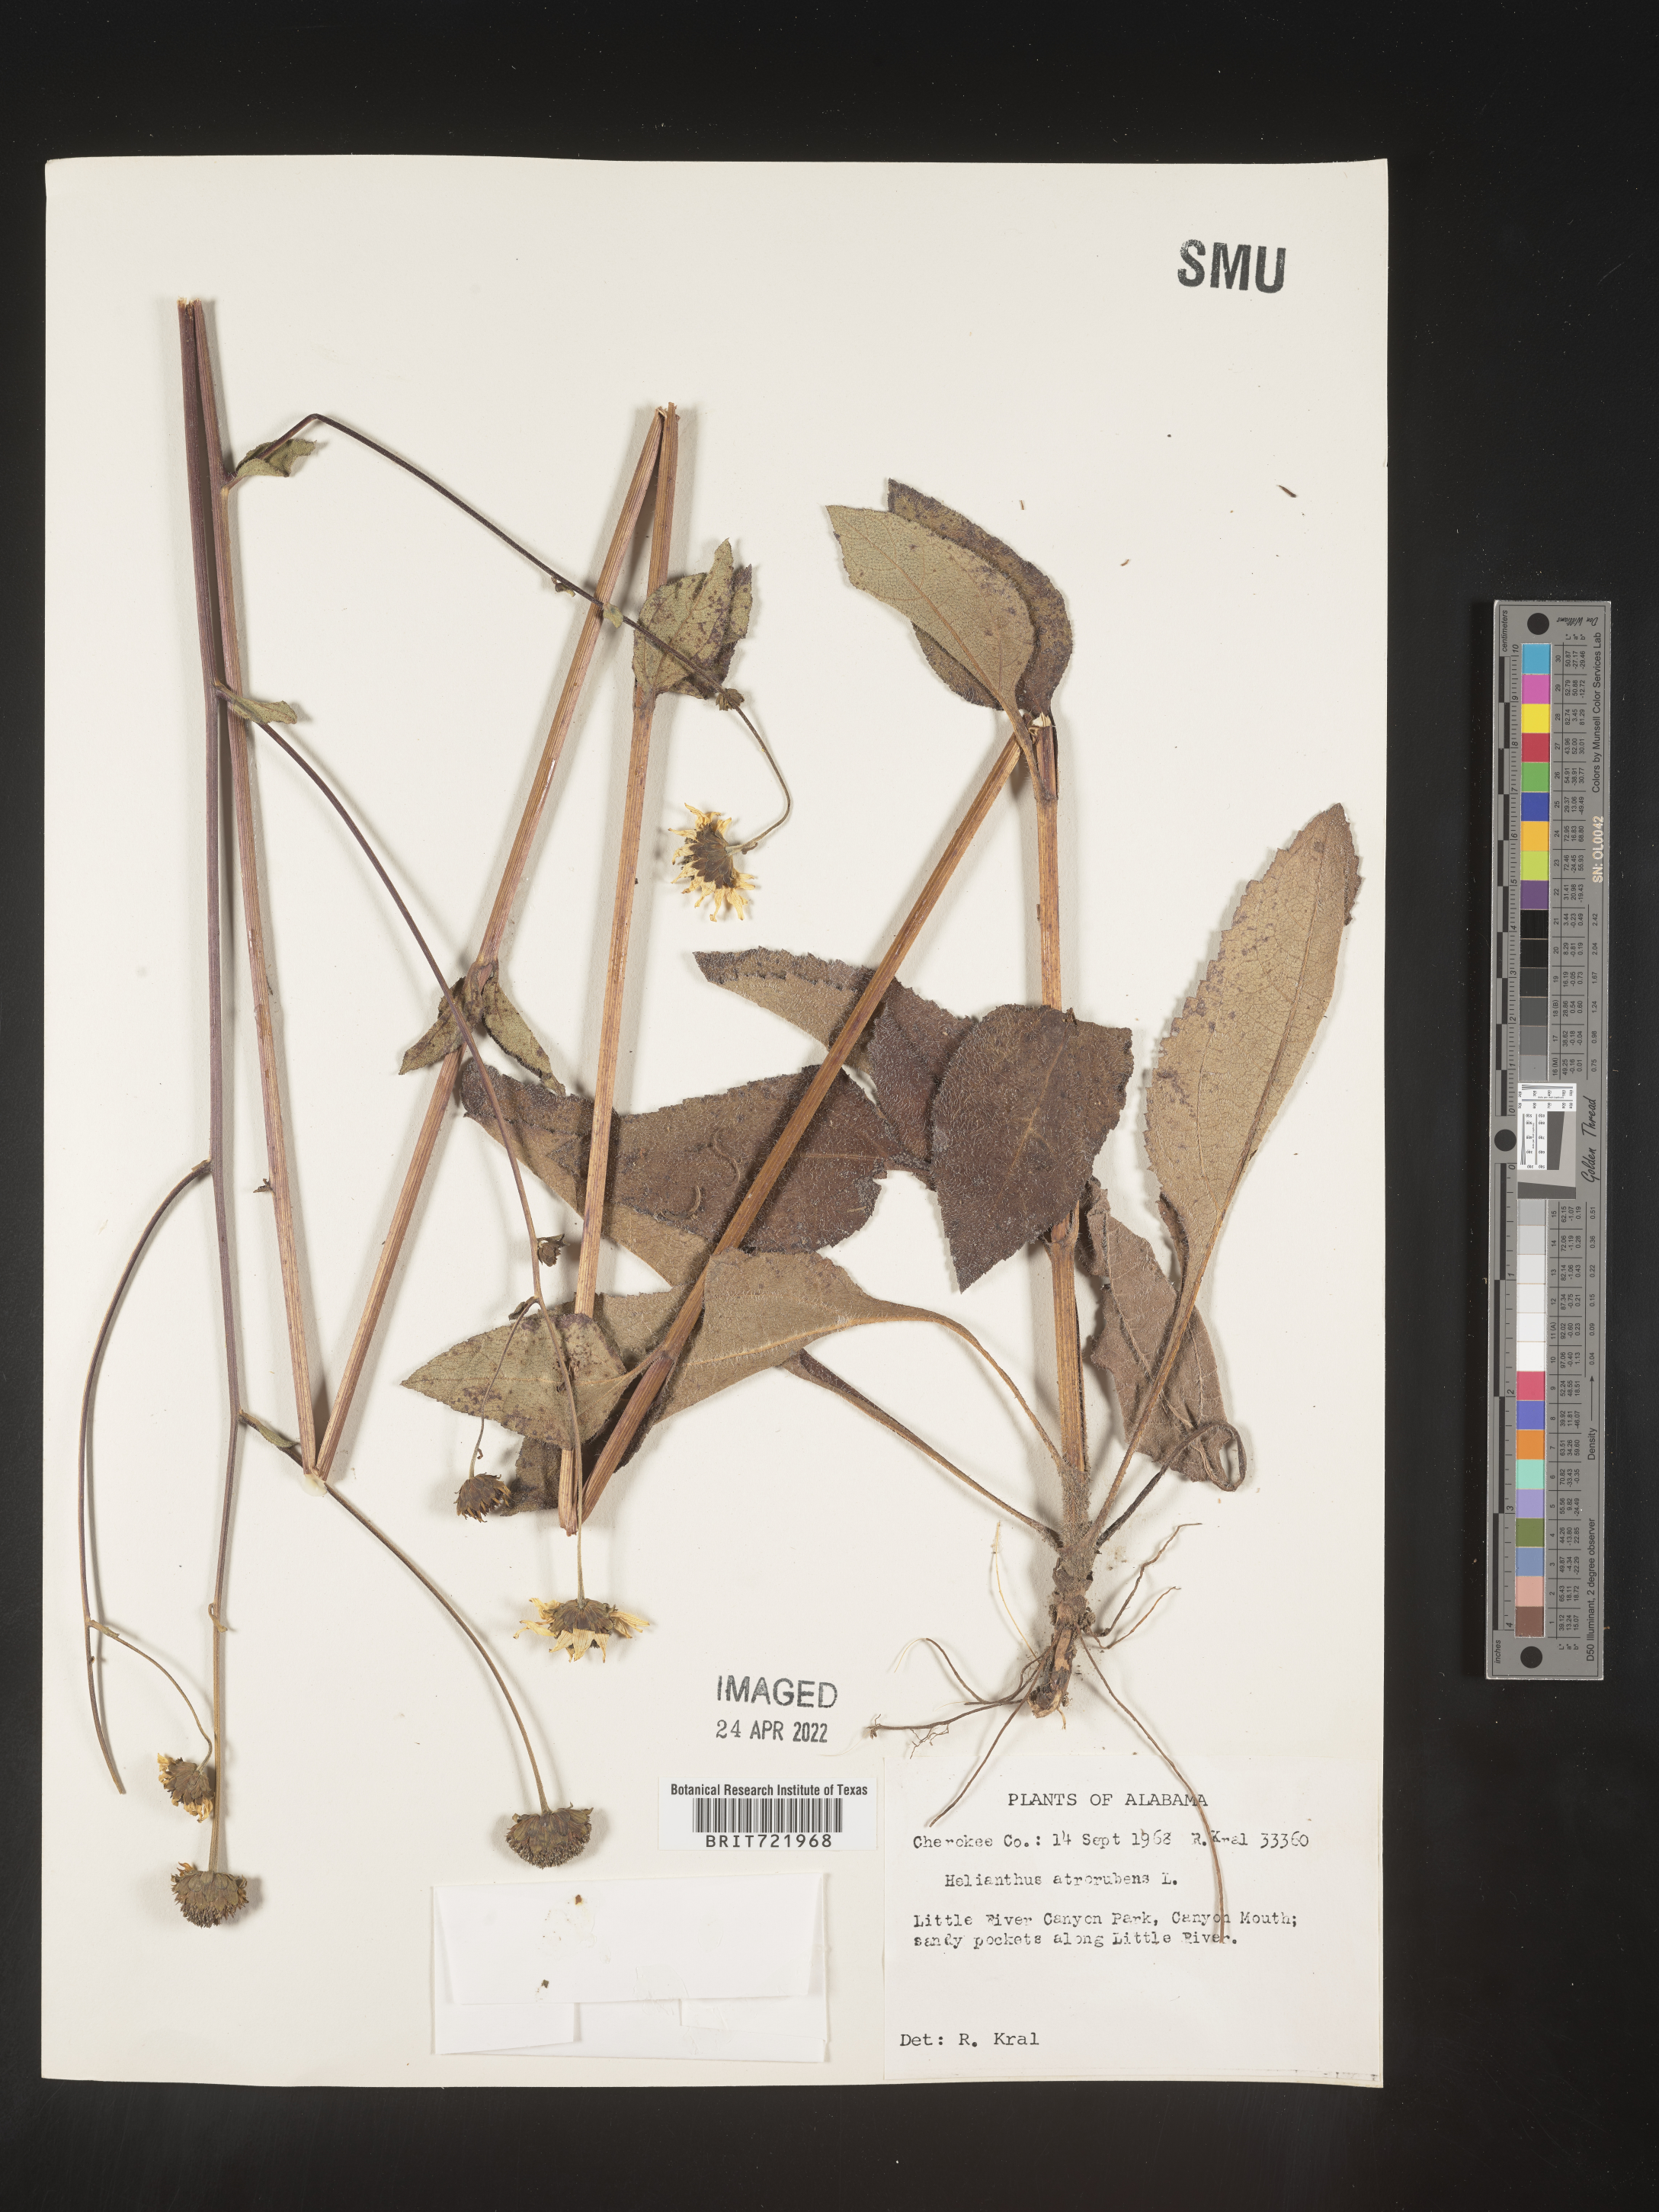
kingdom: Plantae
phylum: Tracheophyta
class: Magnoliopsida
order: Asterales
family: Asteraceae
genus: Helianthus
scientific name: Helianthus atrorubens
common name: Dark-eyed sunflower
